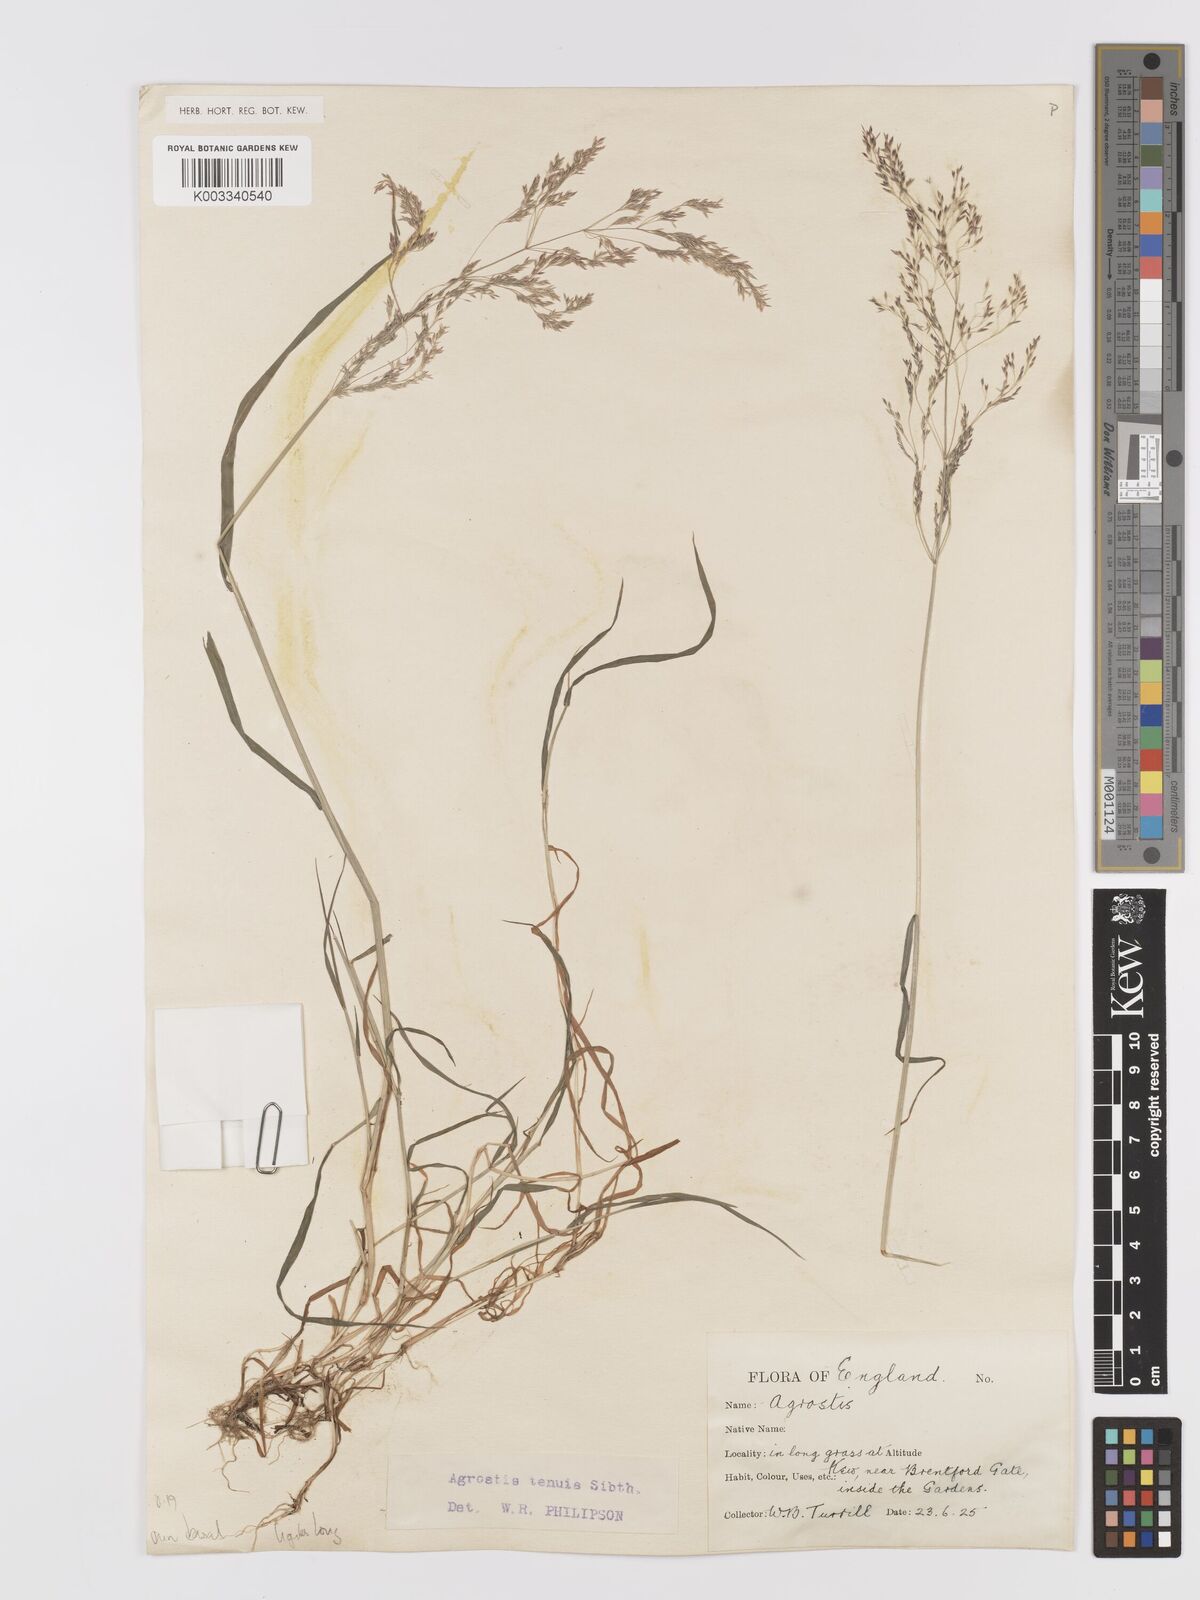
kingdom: Plantae
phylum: Tracheophyta
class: Liliopsida
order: Poales
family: Poaceae
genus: Agrostis
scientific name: Agrostis capillaris
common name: Colonial bentgrass
